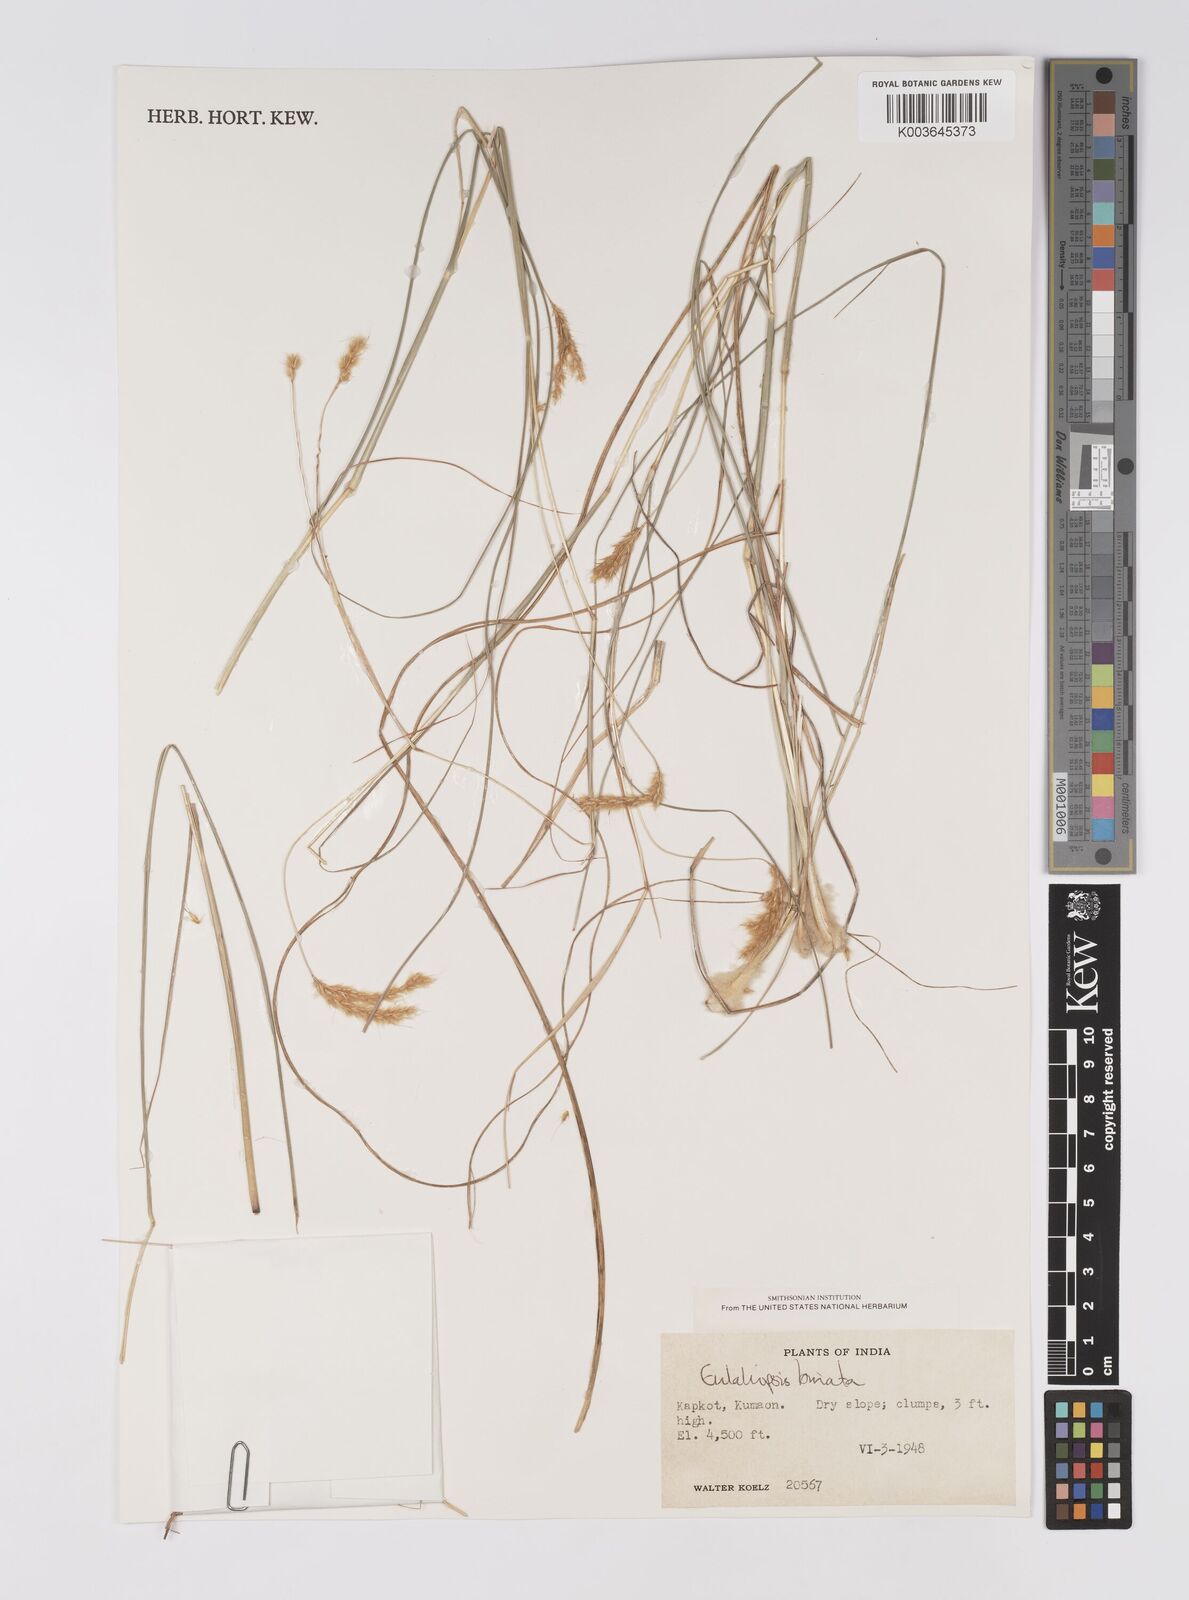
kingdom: Plantae
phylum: Tracheophyta
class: Liliopsida
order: Poales
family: Poaceae
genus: Eulaliopsis
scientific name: Eulaliopsis binata
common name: Baib grass
